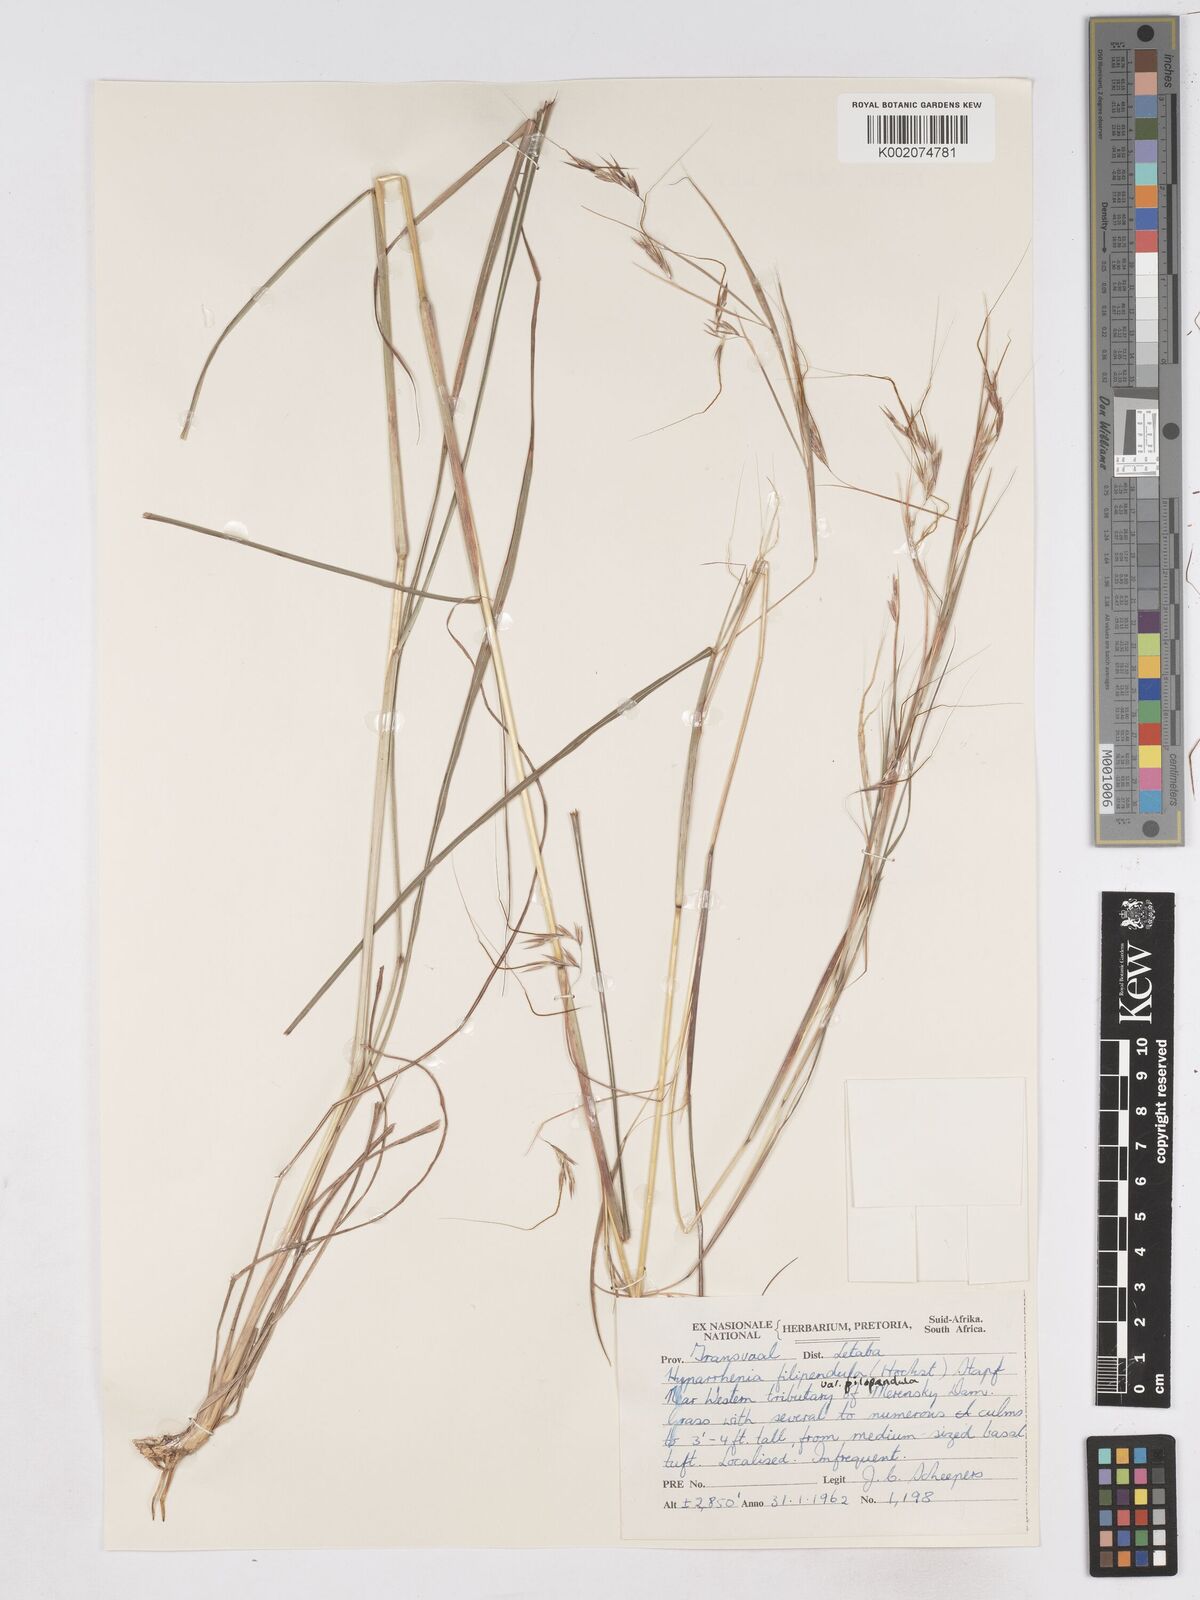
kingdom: Plantae
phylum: Tracheophyta
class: Liliopsida
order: Poales
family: Poaceae
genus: Hyparrhenia
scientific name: Hyparrhenia filipendula
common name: Tambookie grass
